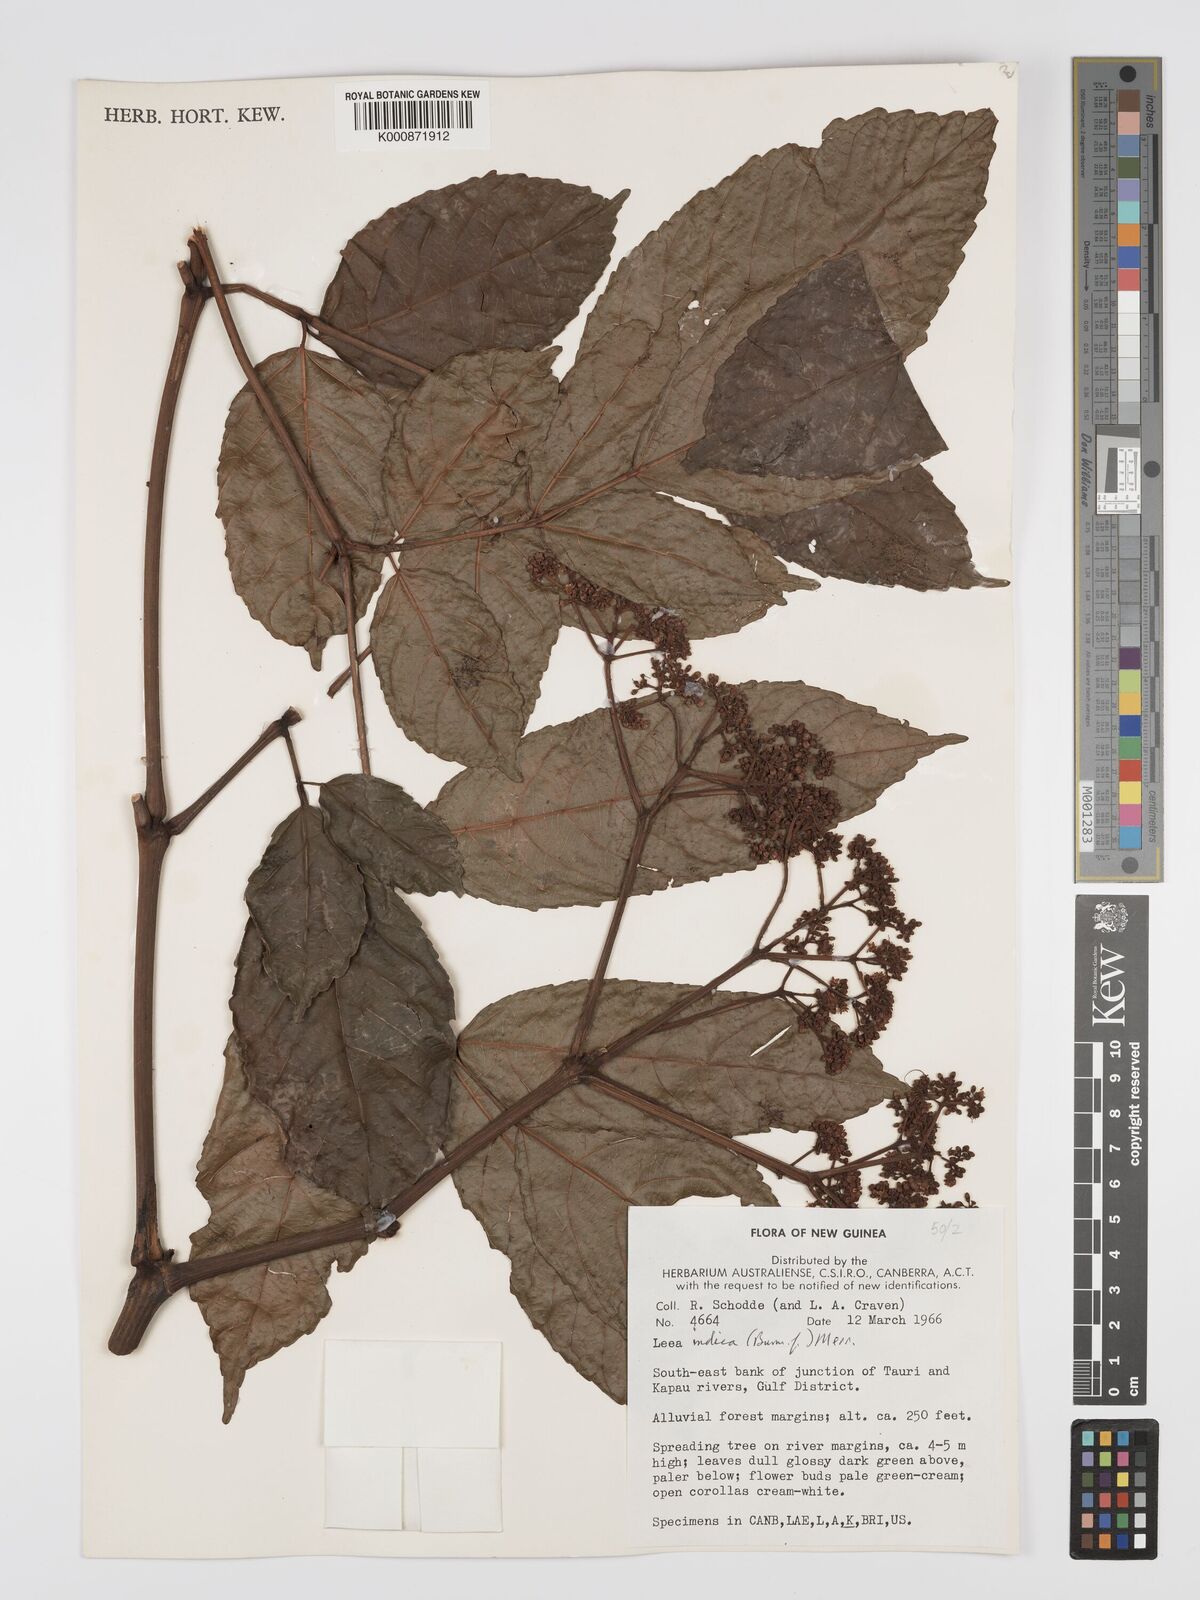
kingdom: Plantae
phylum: Tracheophyta
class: Magnoliopsida
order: Vitales
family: Vitaceae
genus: Leea
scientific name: Leea indica
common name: Bandicoot-berry
